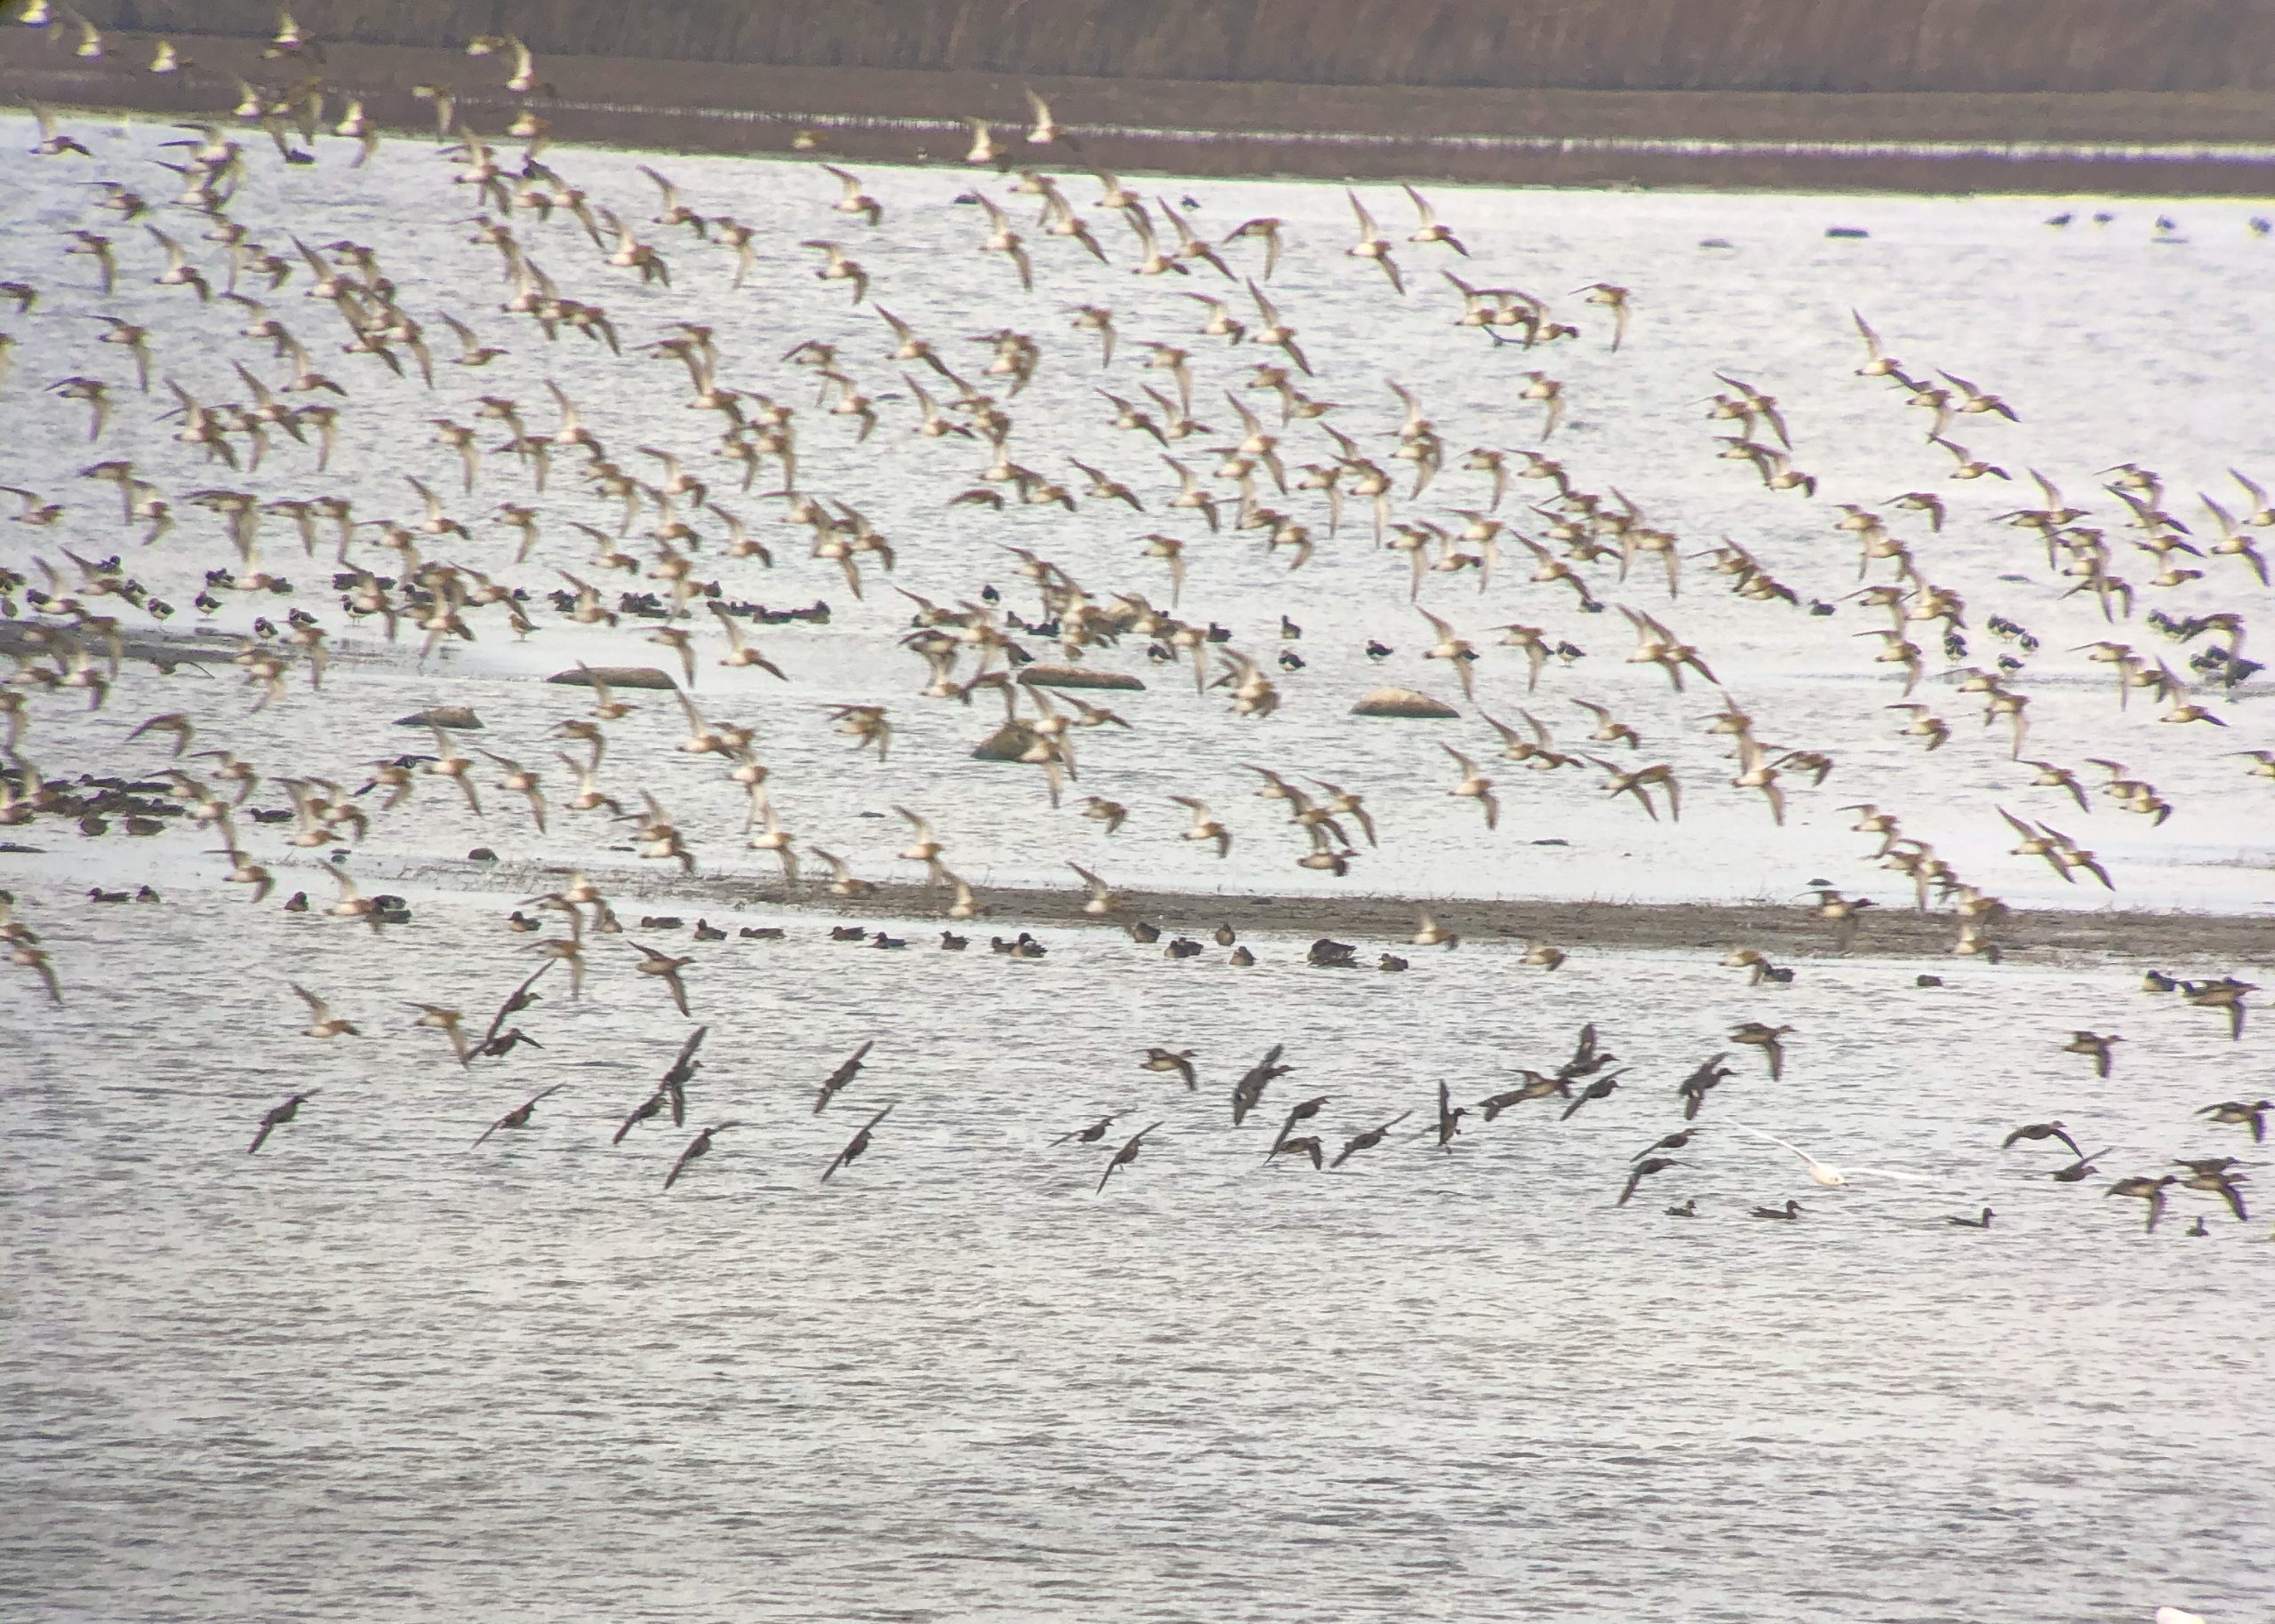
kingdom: Animalia
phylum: Chordata
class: Aves
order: Charadriiformes
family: Charadriidae
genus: Pluvialis
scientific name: Pluvialis apricaria
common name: Hjejle
